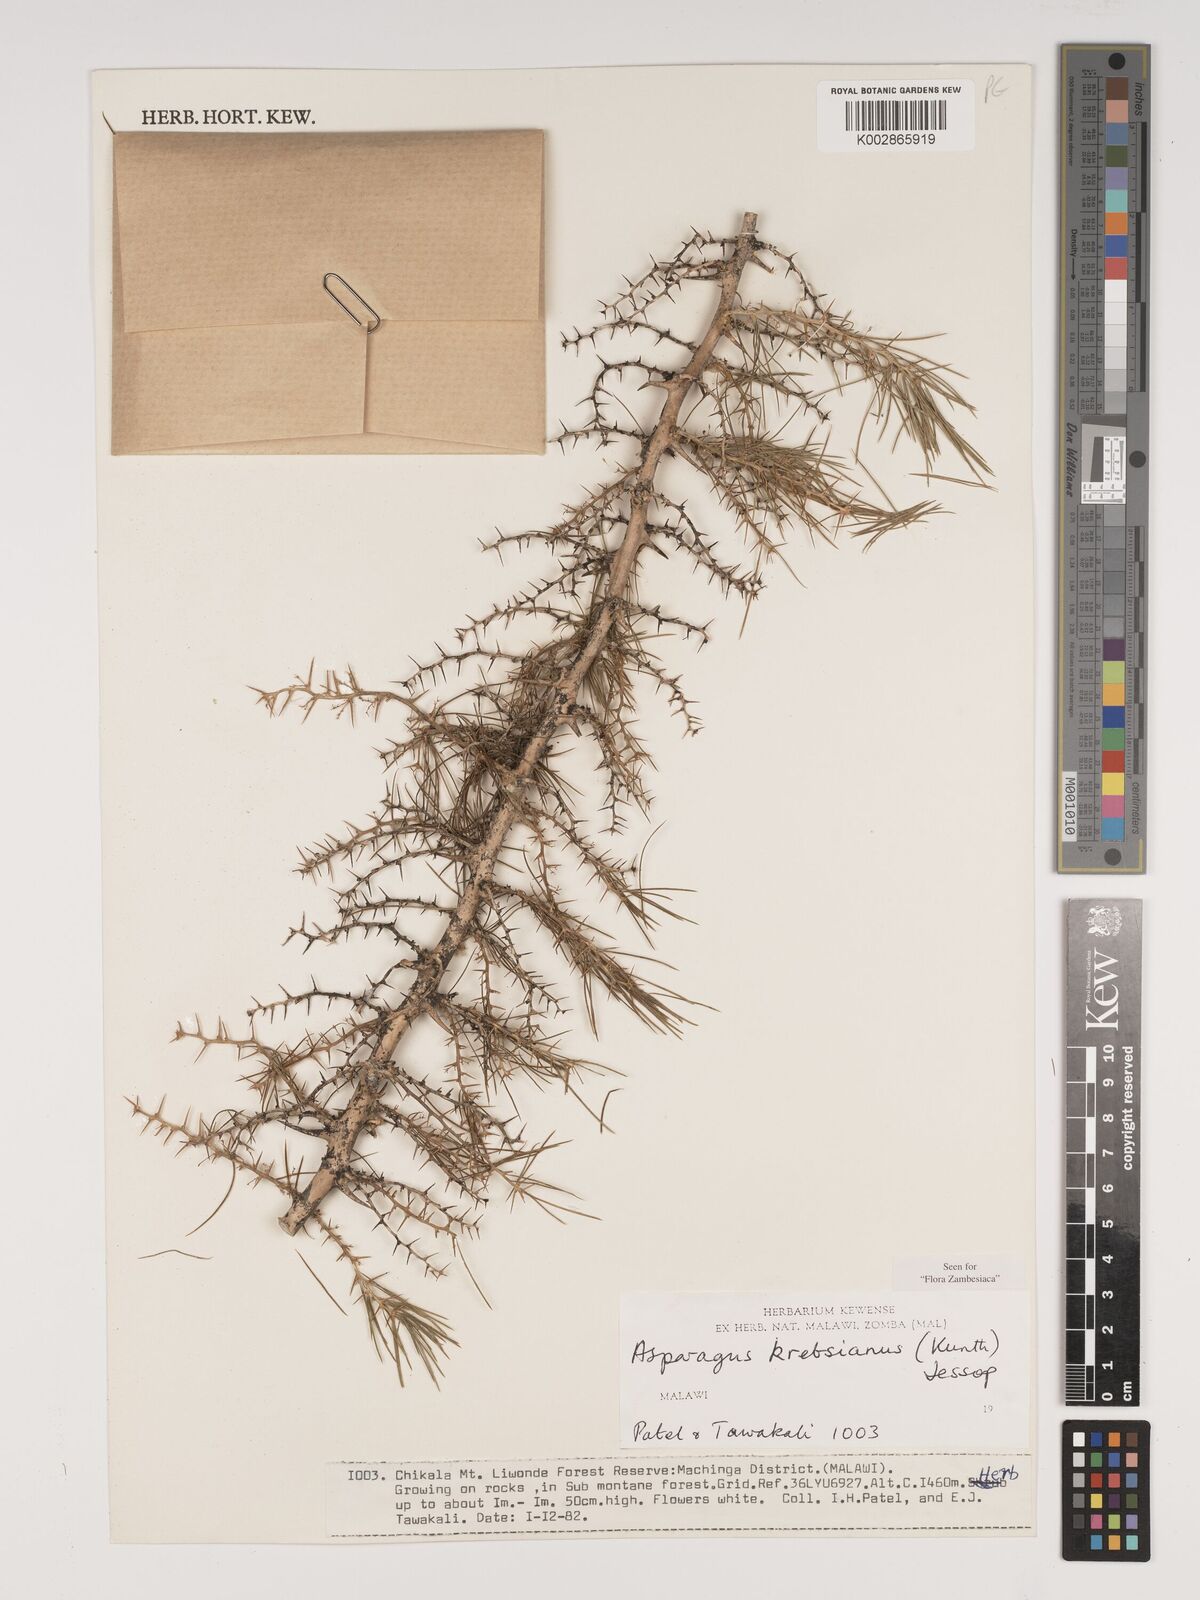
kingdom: Plantae
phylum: Tracheophyta
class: Liliopsida
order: Asparagales
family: Asparagaceae
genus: Asparagus
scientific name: Asparagus krebsianus
